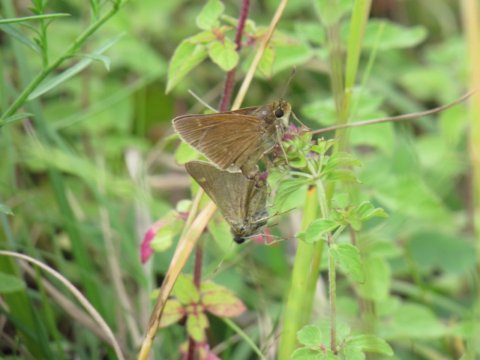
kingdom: Animalia
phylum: Arthropoda
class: Insecta
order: Lepidoptera
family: Hesperiidae
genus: Polites
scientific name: Polites
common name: Crossline Skipper
